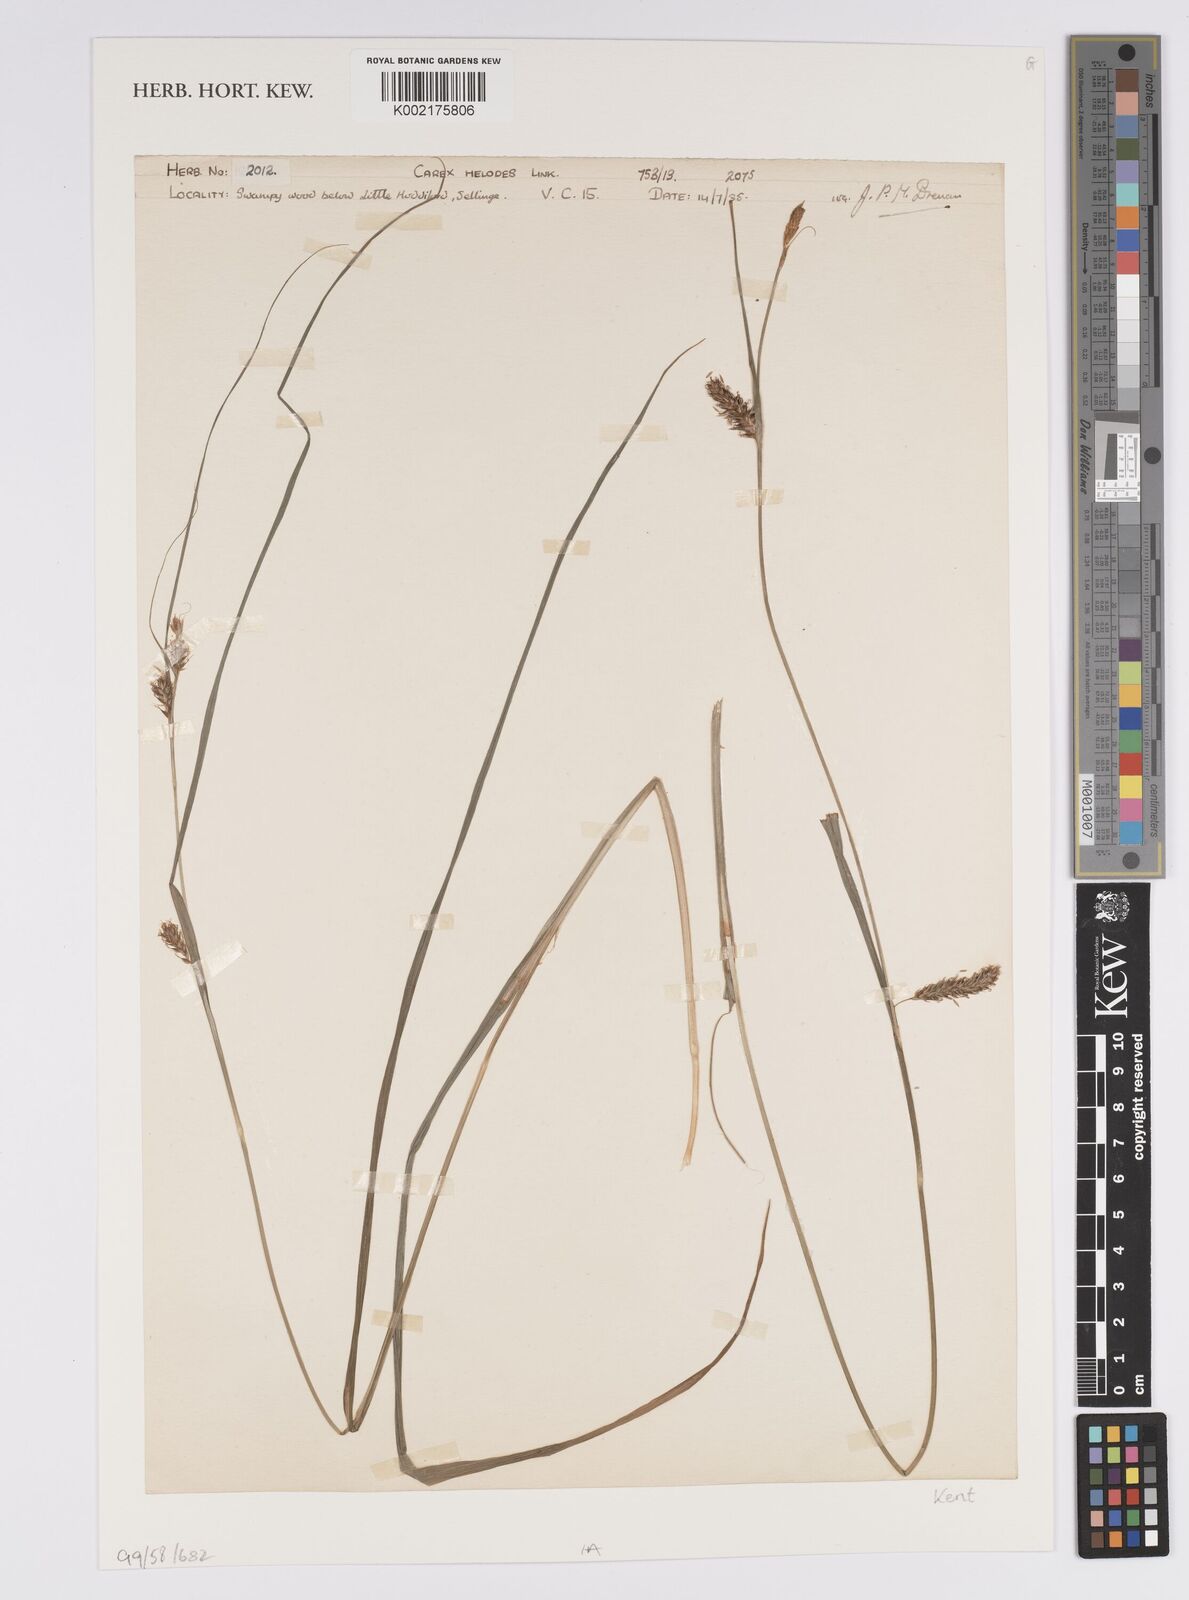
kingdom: Plantae
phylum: Tracheophyta
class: Liliopsida
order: Poales
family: Cyperaceae
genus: Carex
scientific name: Carex laevigata
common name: Smooth-stalked sedge
